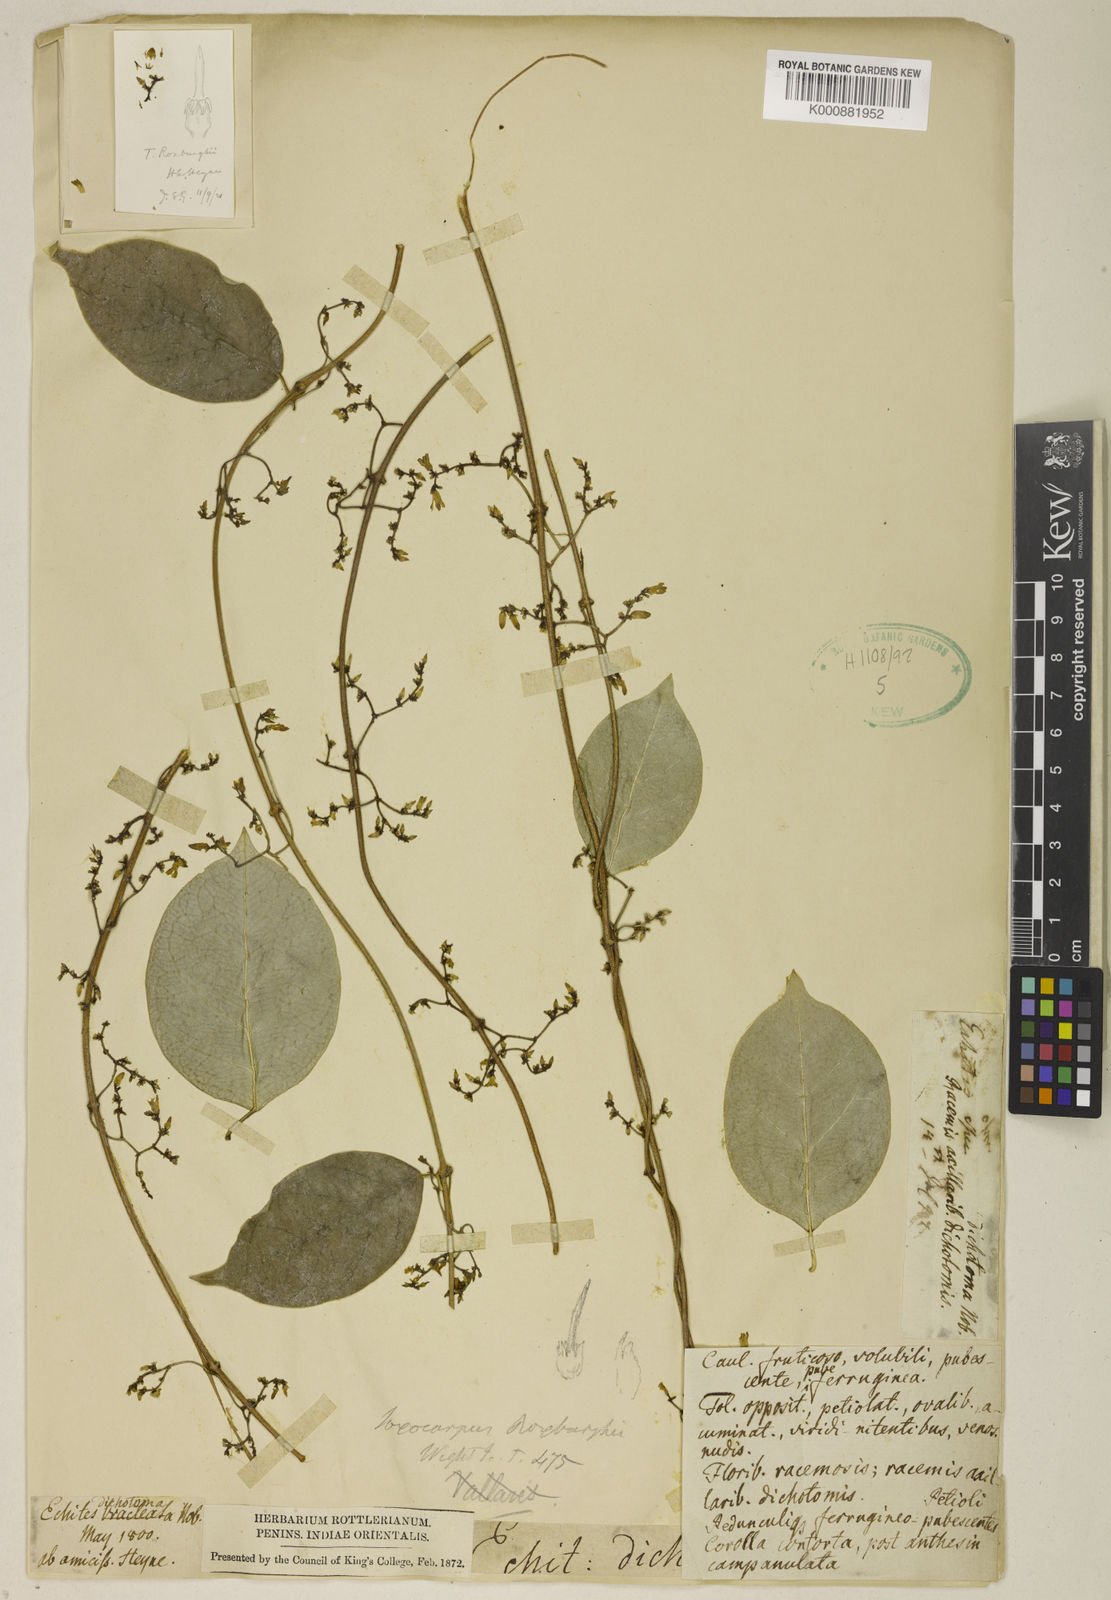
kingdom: Plantae
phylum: Tracheophyta
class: Magnoliopsida
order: Gentianales
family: Apocynaceae
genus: Toxocarpus
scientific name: Toxocarpus longistigma
